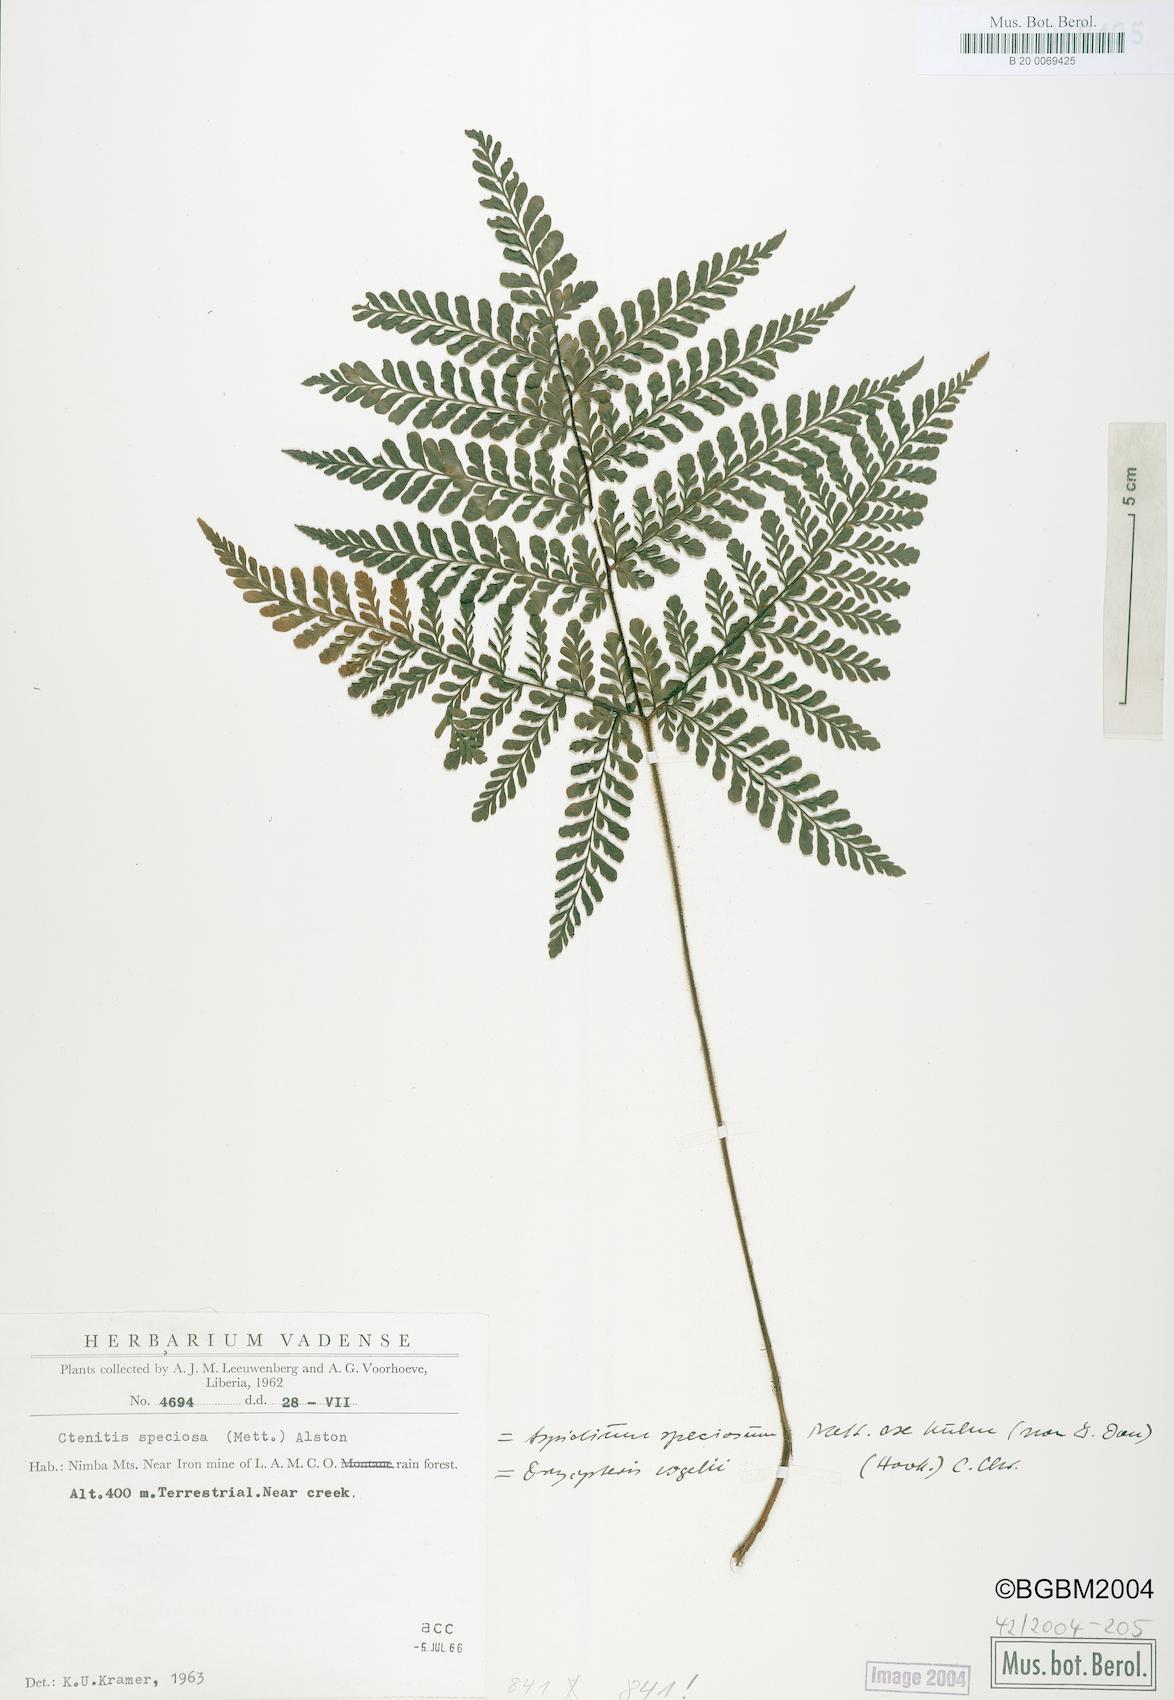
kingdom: Plantae
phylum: Tracheophyta
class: Polypodiopsida
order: Polypodiales
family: Tectariaceae
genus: Triplophyllum
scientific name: Triplophyllum vogelii
